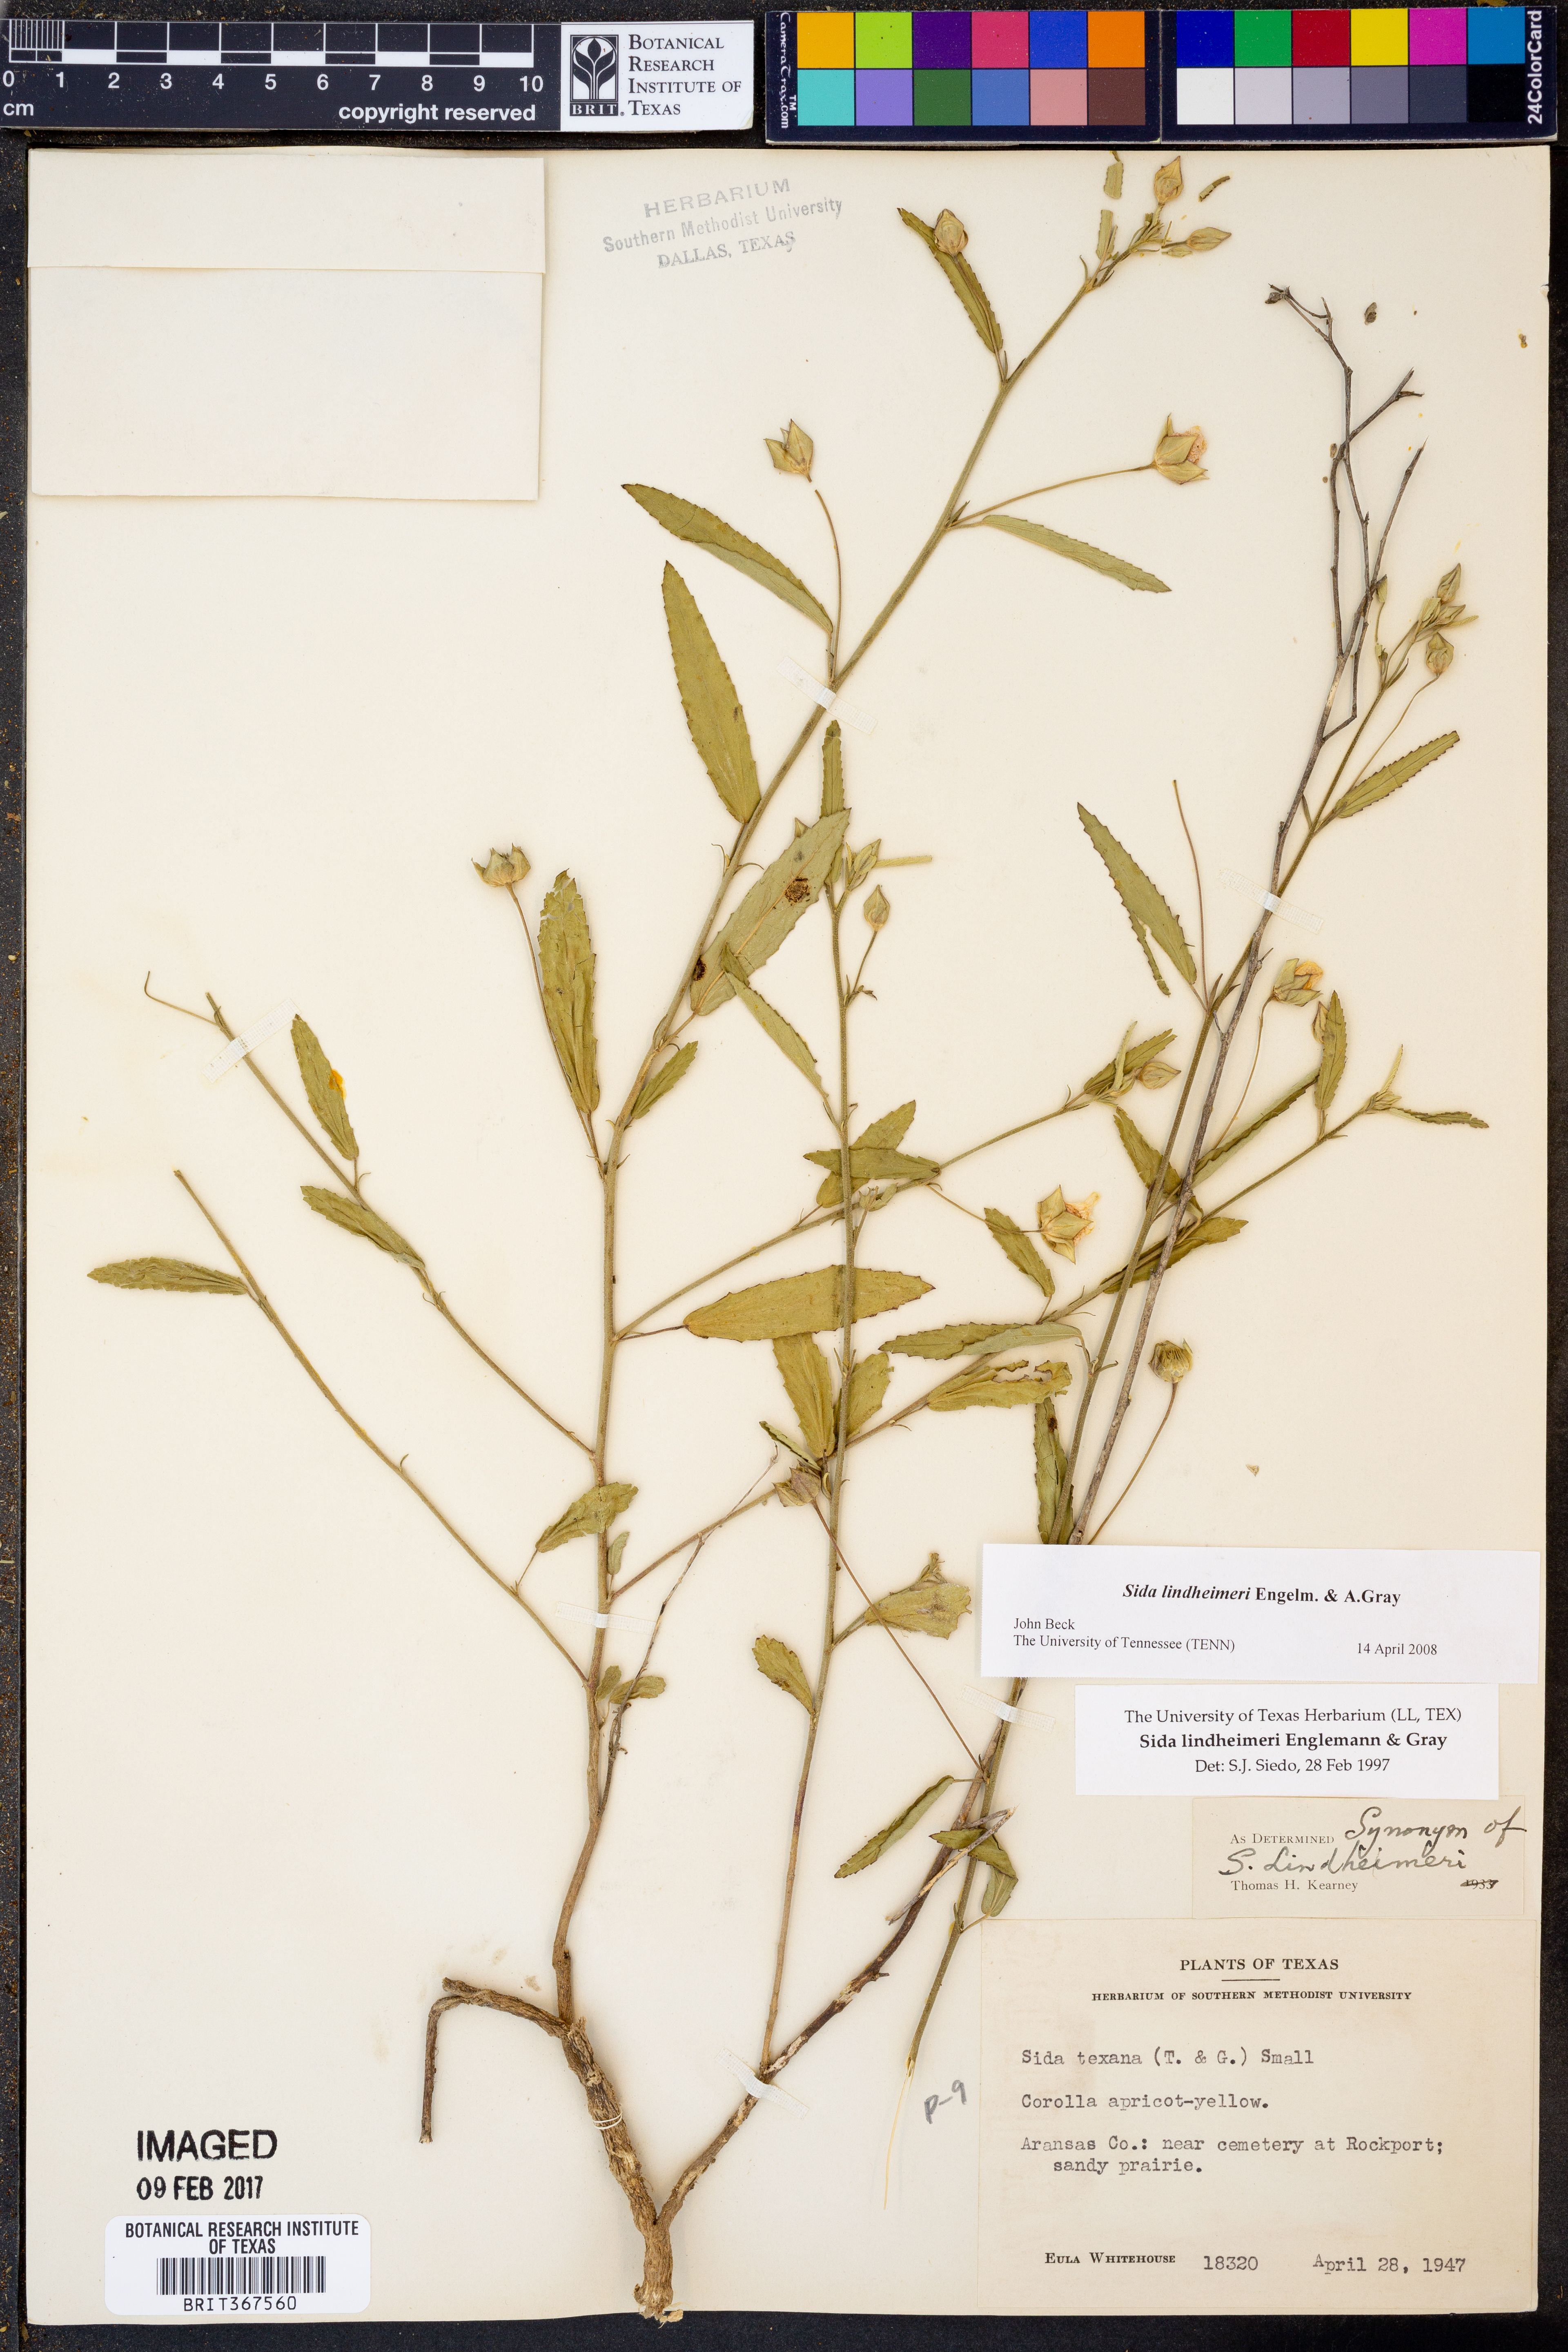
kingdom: Plantae
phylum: Tracheophyta
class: Magnoliopsida
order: Malvales
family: Malvaceae
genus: Sida
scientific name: Sida lindheimeri
